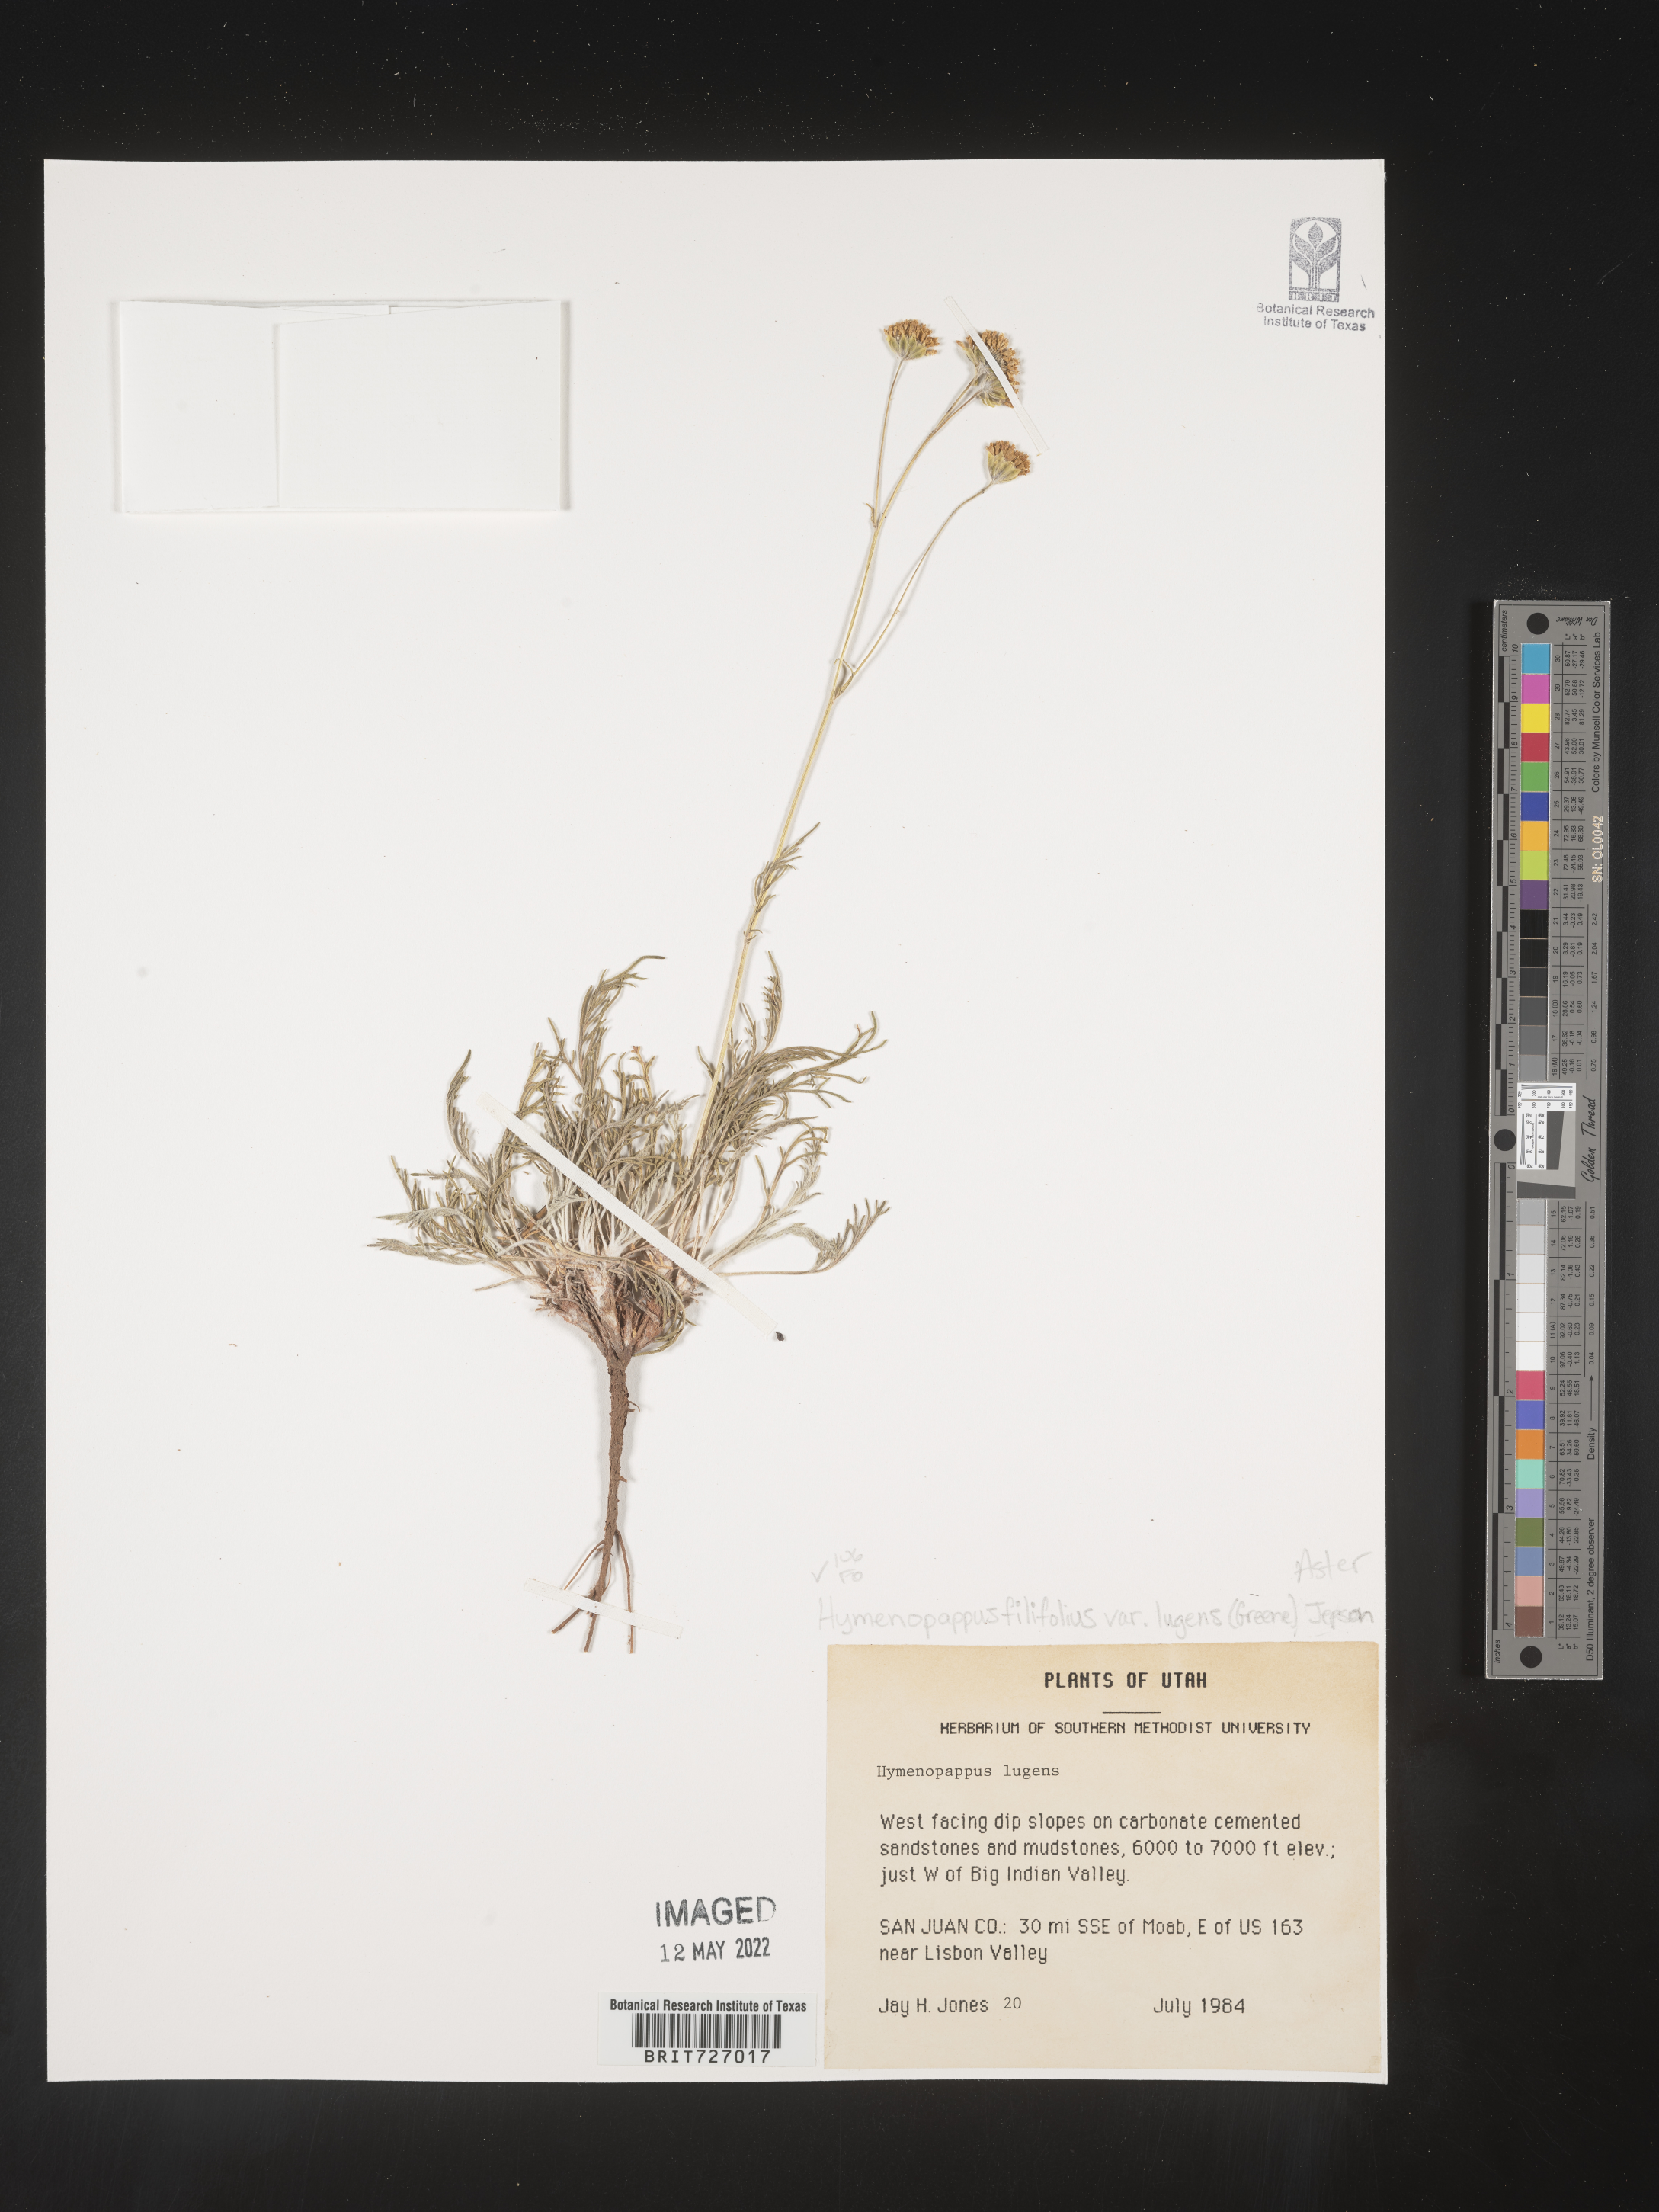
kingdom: Plantae
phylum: Tracheophyta
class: Magnoliopsida
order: Asterales
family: Asteraceae
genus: Hymenopappus
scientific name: Hymenopappus filifolius
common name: Columbia cutleaf
